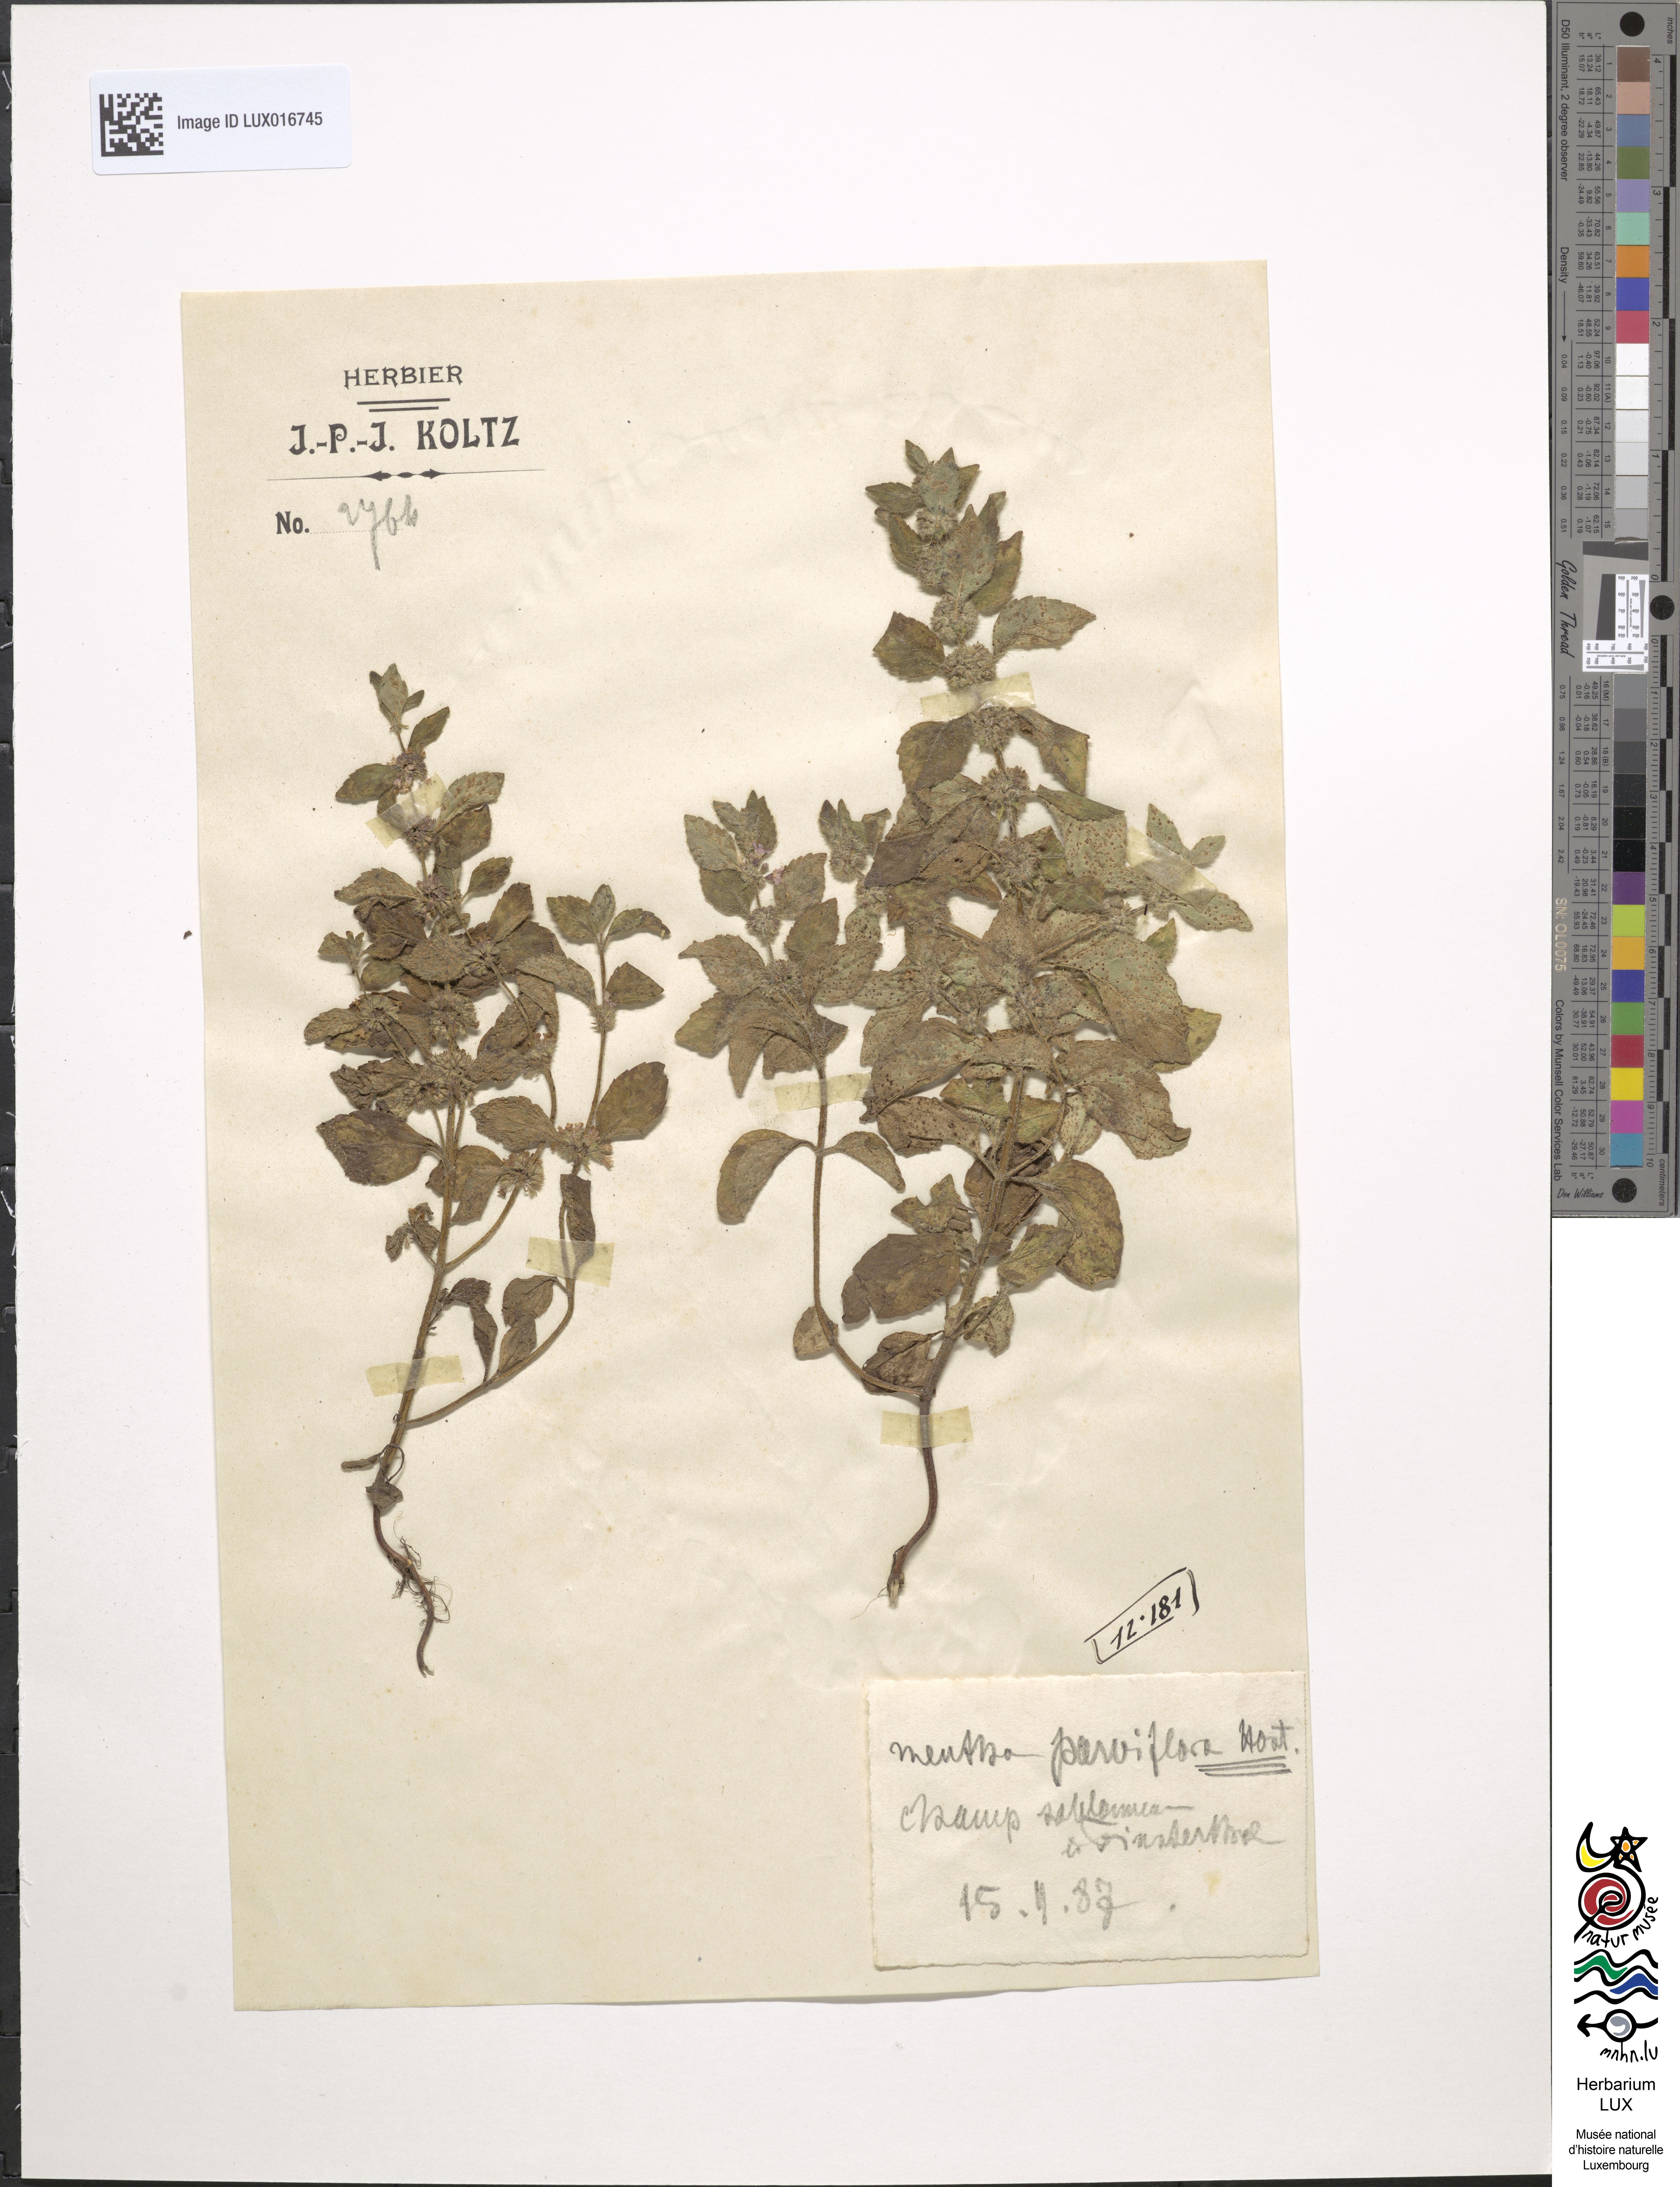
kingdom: Plantae
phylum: Tracheophyta
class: Magnoliopsida
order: Lamiales
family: Lamiaceae
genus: Mentha
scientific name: Mentha arvensis
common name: Corn mint
